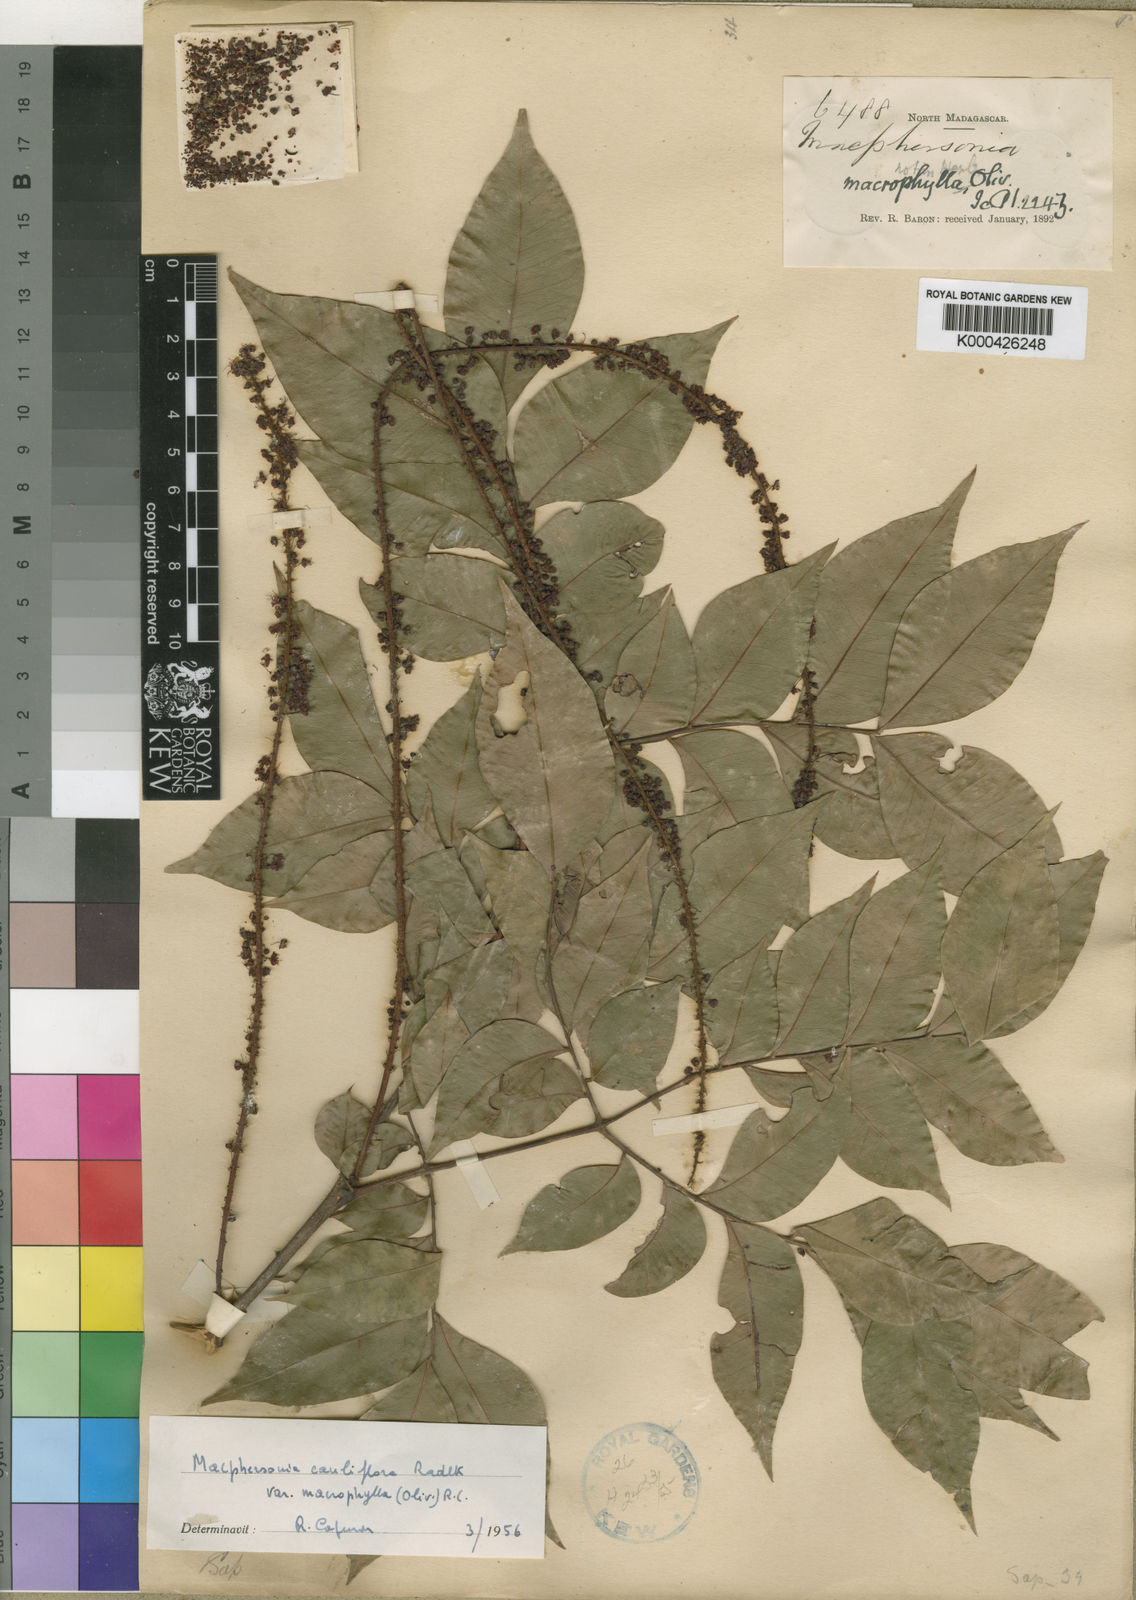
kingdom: Plantae
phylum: Tracheophyta
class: Magnoliopsida
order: Sapindales
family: Sapindaceae
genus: Macphersonia
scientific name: Macphersonia cauliflora
